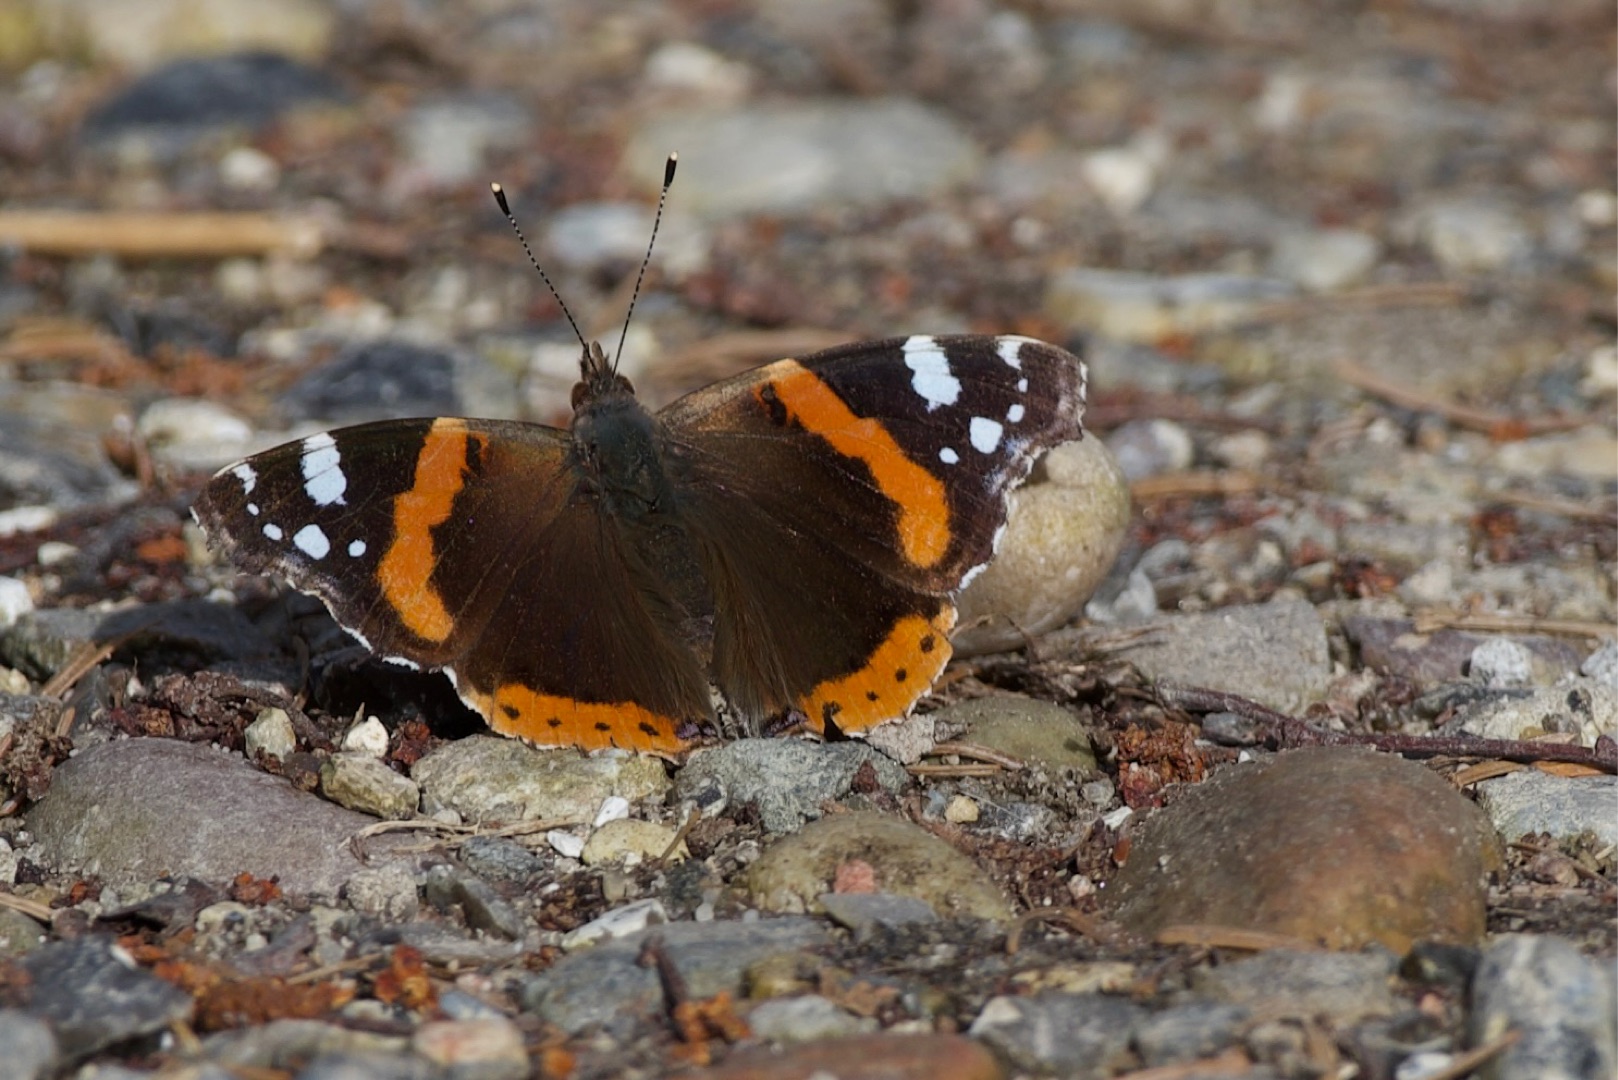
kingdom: Animalia
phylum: Arthropoda
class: Insecta
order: Lepidoptera
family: Nymphalidae
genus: Vanessa
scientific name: Vanessa atalanta
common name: Admiral
